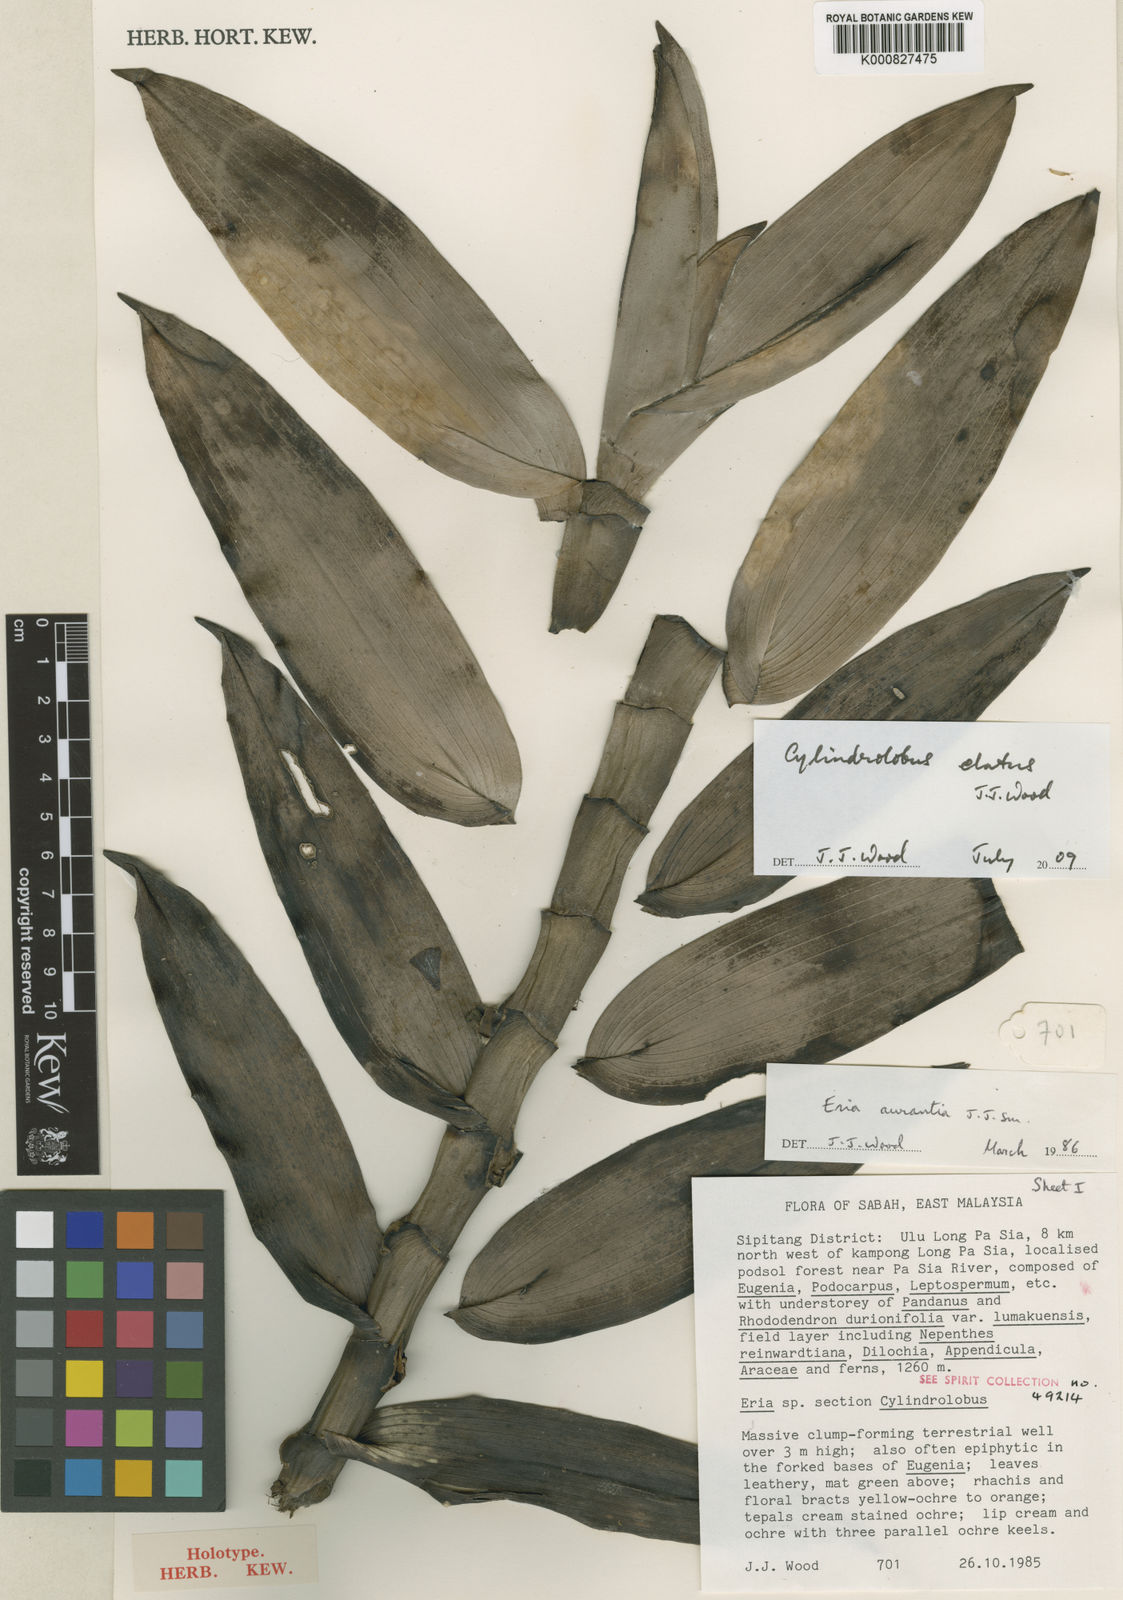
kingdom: Plantae
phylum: Tracheophyta
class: Liliopsida
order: Asparagales
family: Orchidaceae
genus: Cylindrolobus
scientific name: Cylindrolobus elatus
